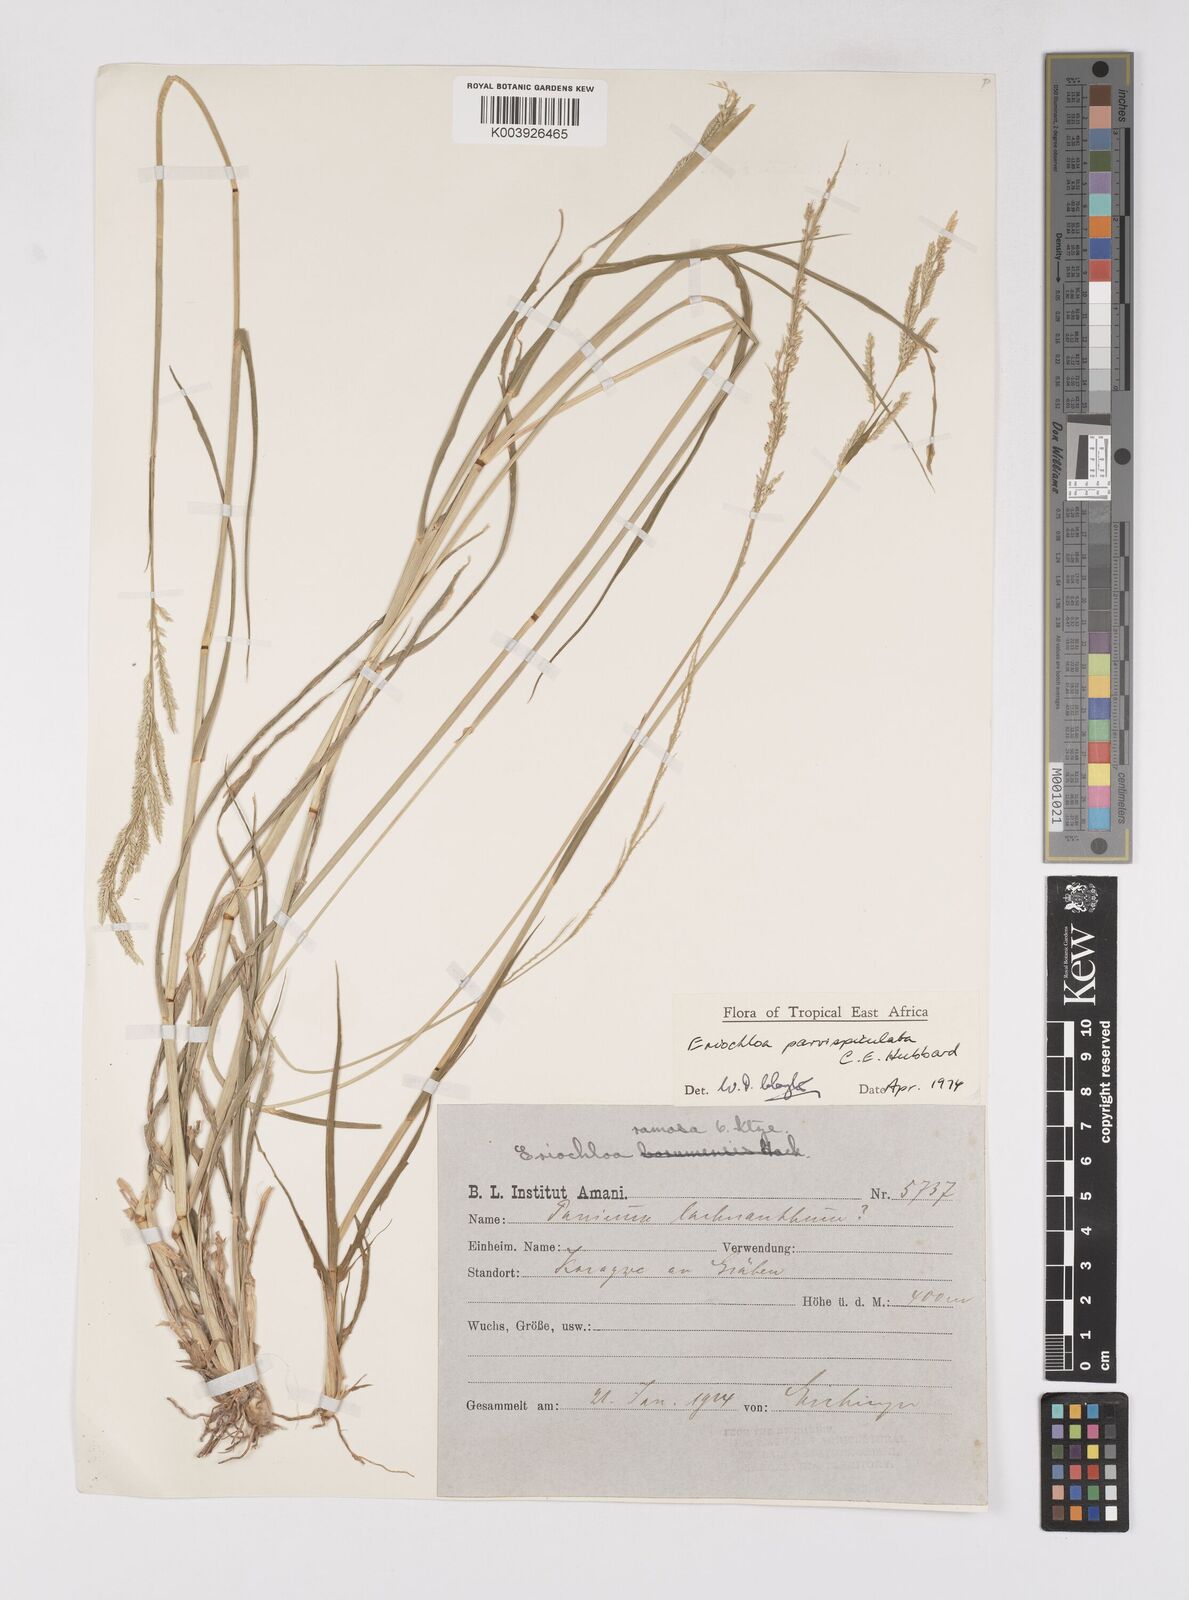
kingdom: Plantae
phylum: Tracheophyta
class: Liliopsida
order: Poales
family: Poaceae
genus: Eriochloa
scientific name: Eriochloa parvispiculata
